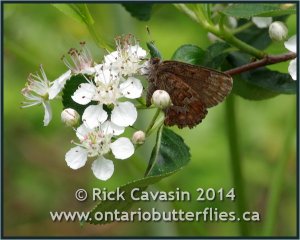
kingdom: Animalia
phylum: Arthropoda
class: Insecta
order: Lepidoptera
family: Lycaenidae
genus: Incisalia
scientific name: Incisalia niphon
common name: Eastern Pine Elfin
